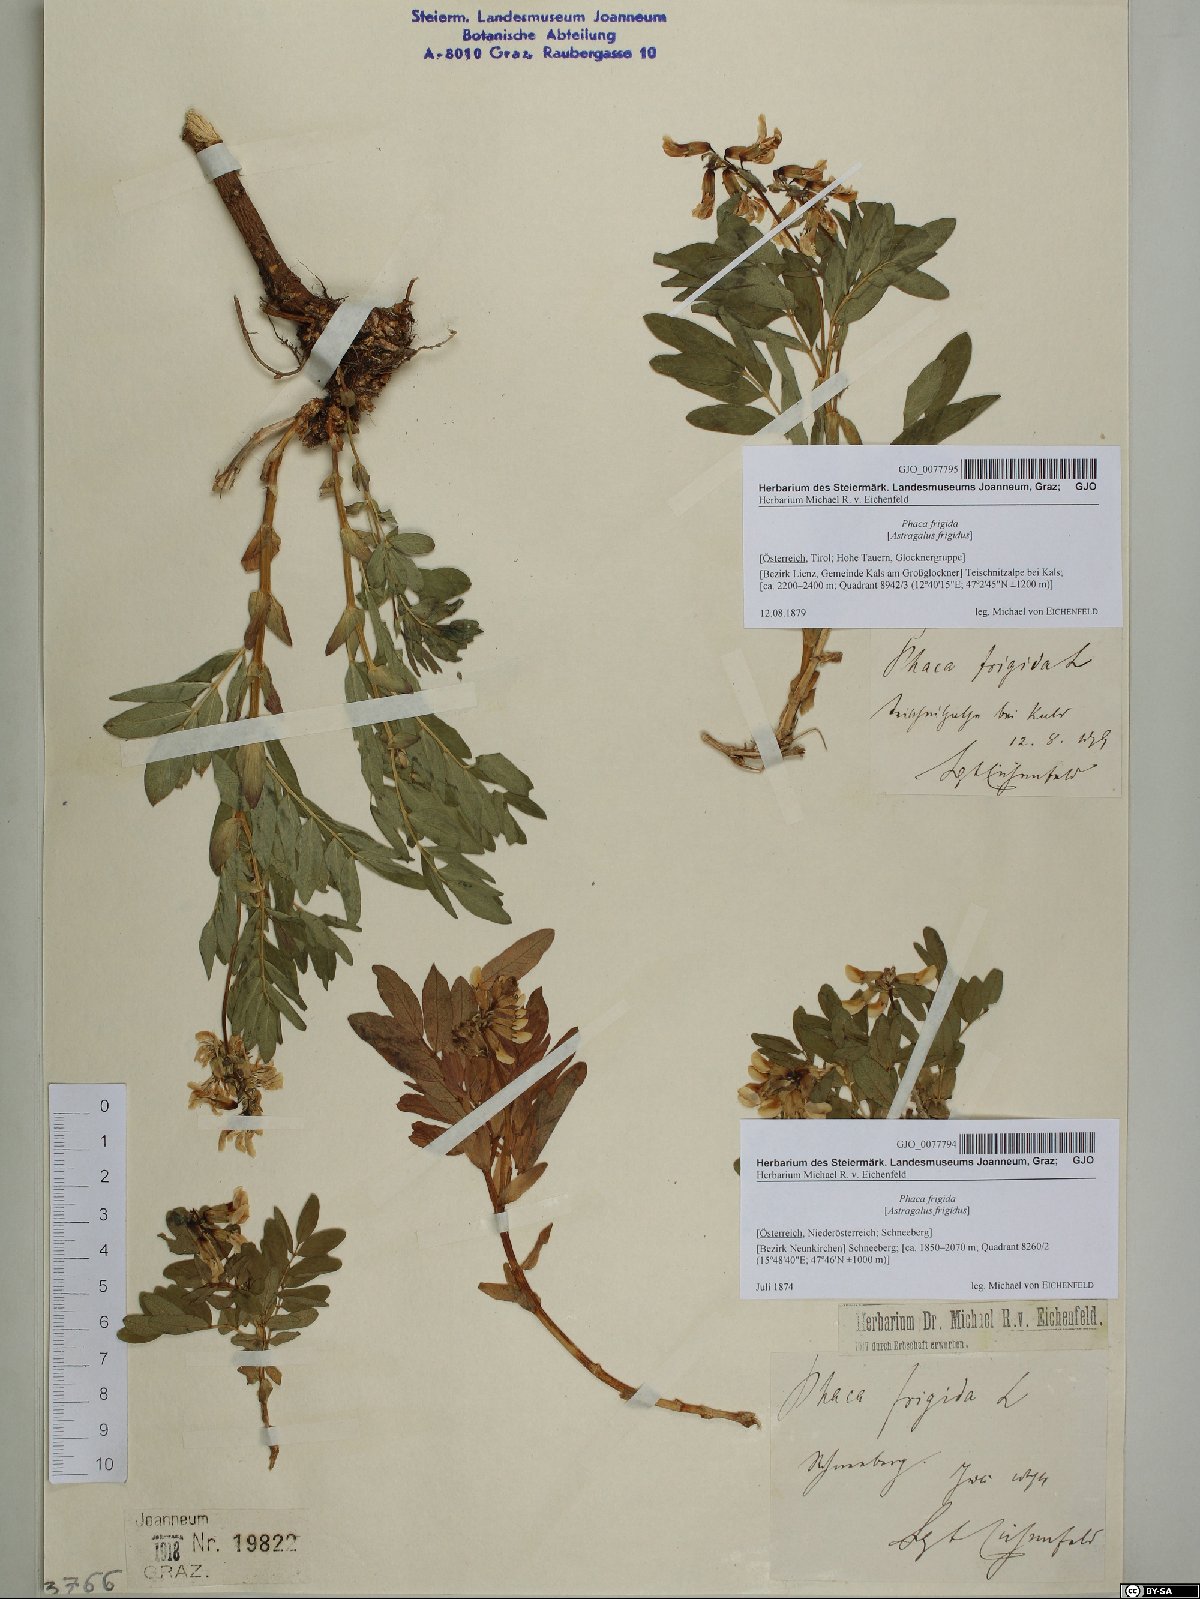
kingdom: Plantae
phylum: Tracheophyta
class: Magnoliopsida
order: Fabales
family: Fabaceae
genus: Astragalus
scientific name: Astragalus frigidus
